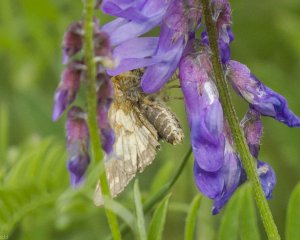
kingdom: Animalia
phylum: Arthropoda
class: Insecta
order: Lepidoptera
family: Hesperiidae
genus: Polites
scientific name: Polites coras
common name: Peck's Skipper
